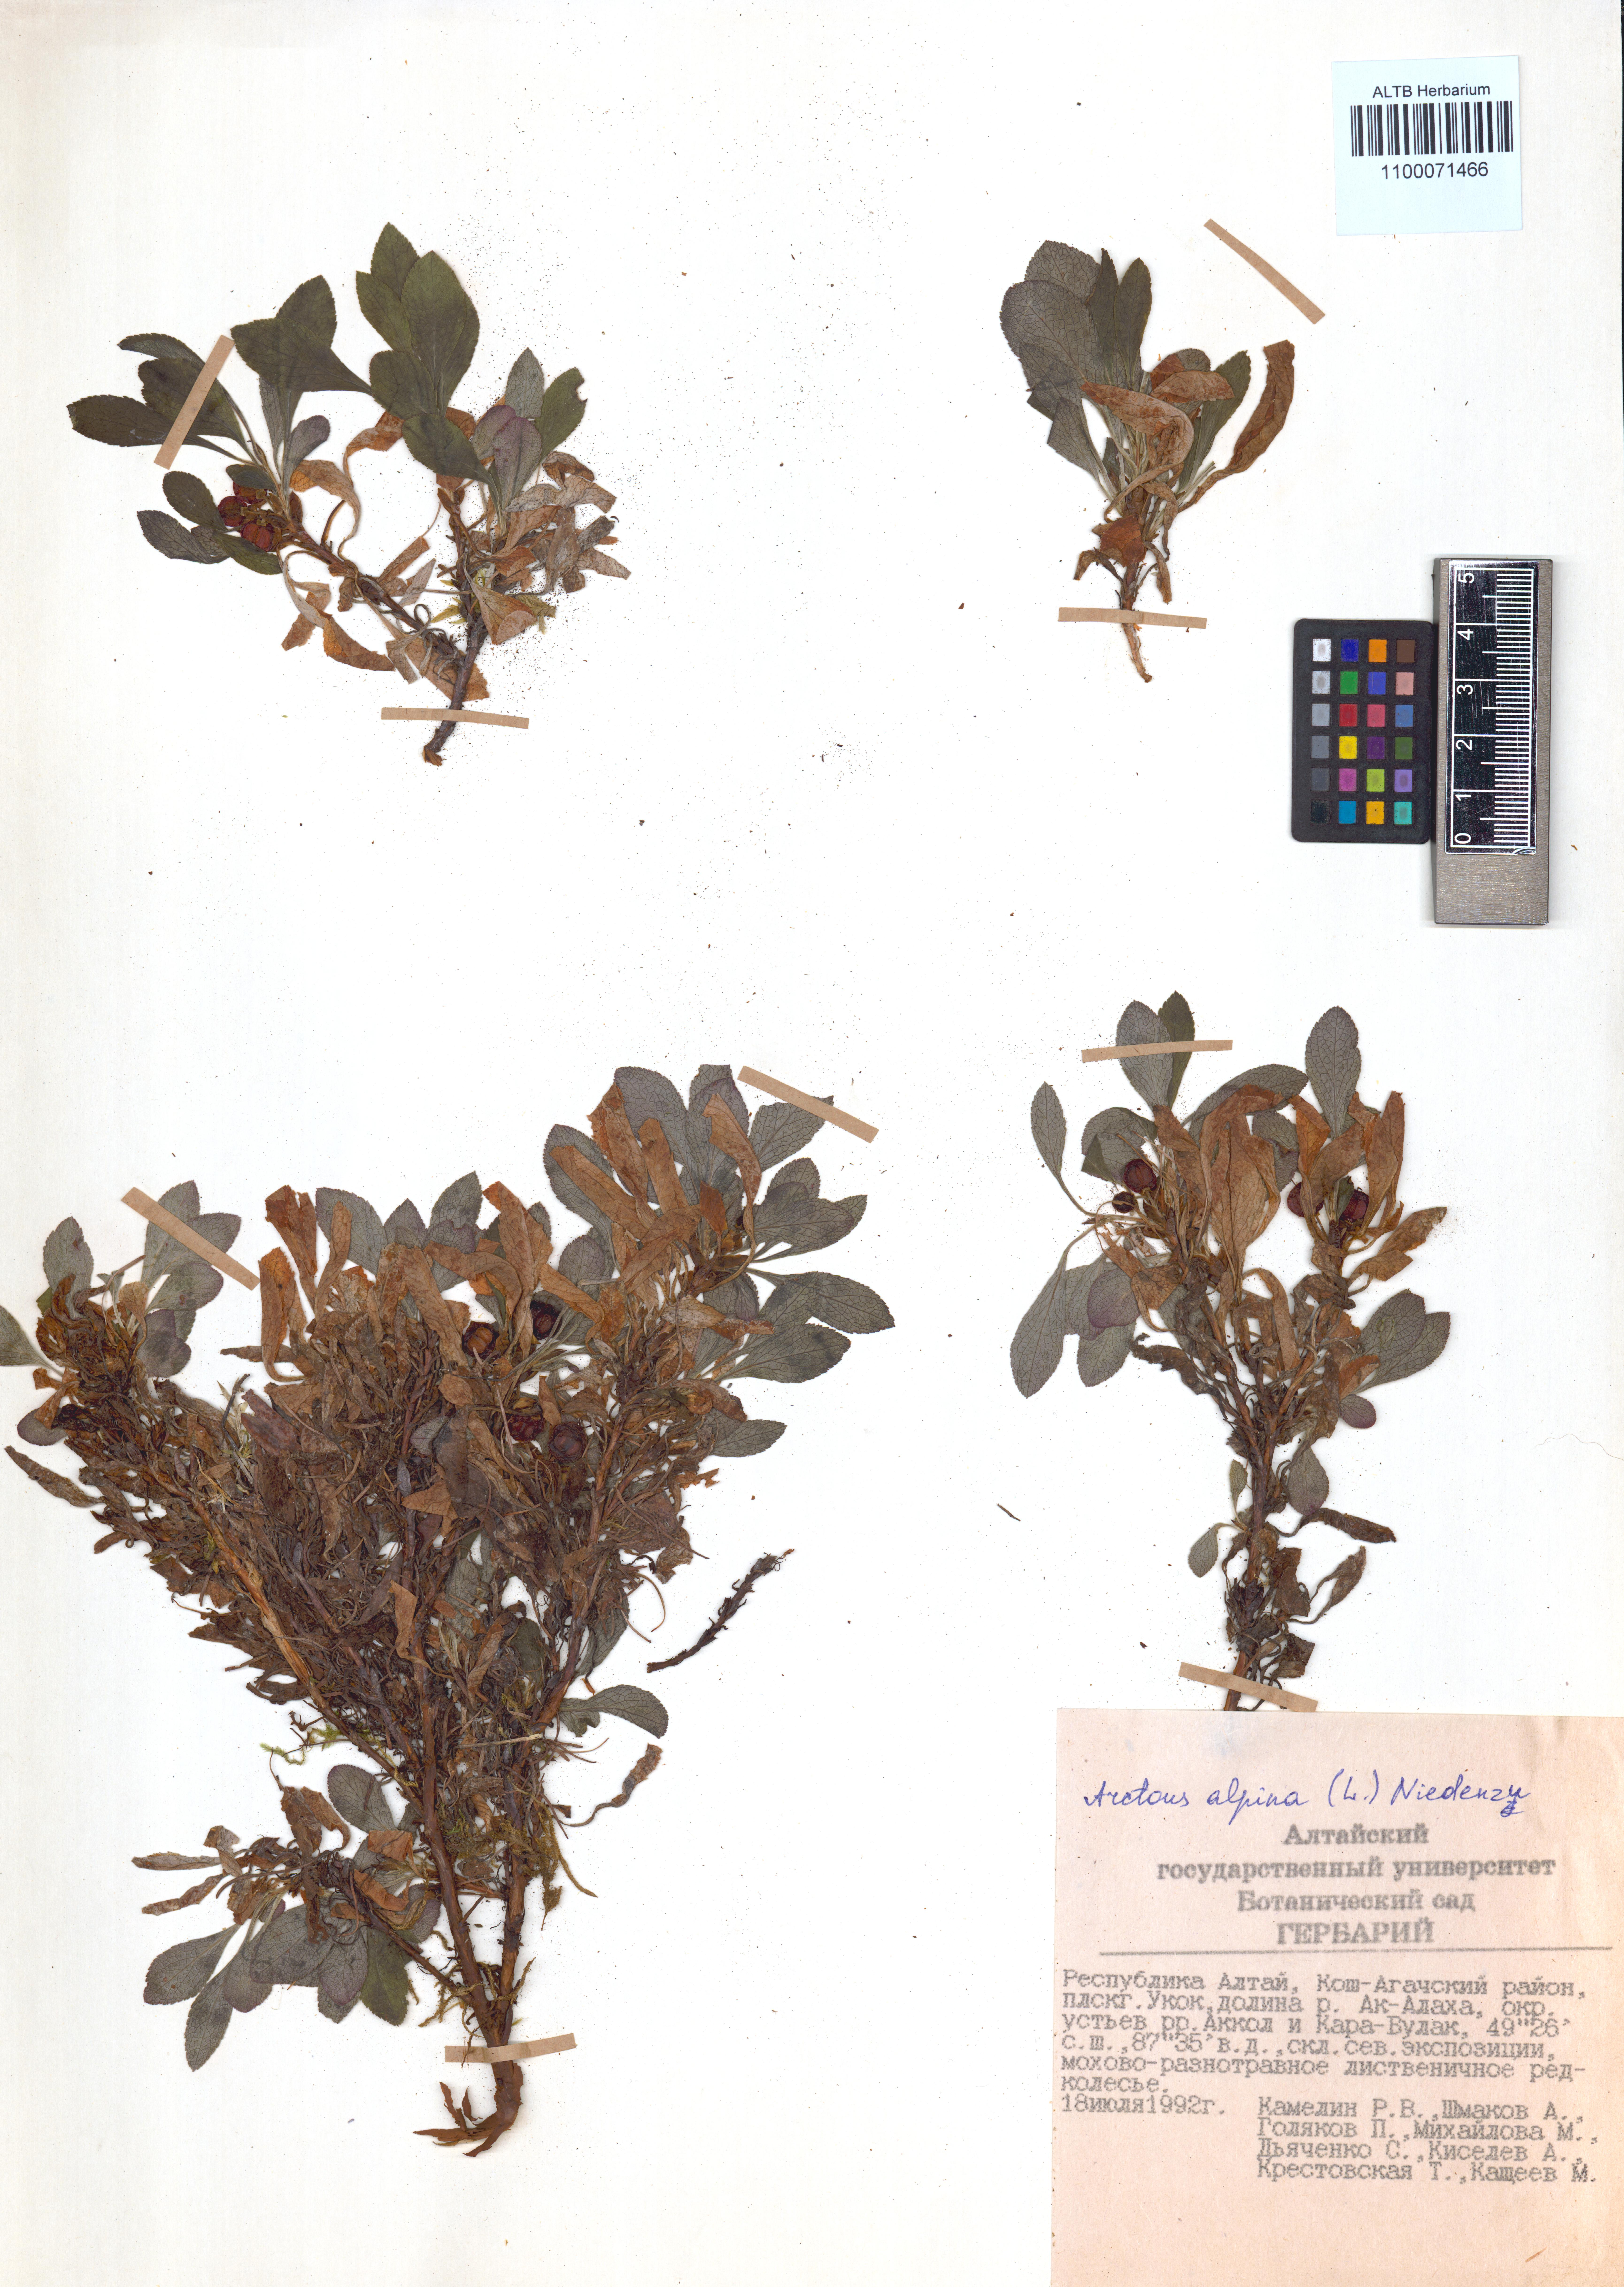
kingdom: Plantae
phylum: Tracheophyta
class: Magnoliopsida
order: Ericales
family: Ericaceae
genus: Arctostaphylos
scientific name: Arctostaphylos alpinus
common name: Alpine bearberry
